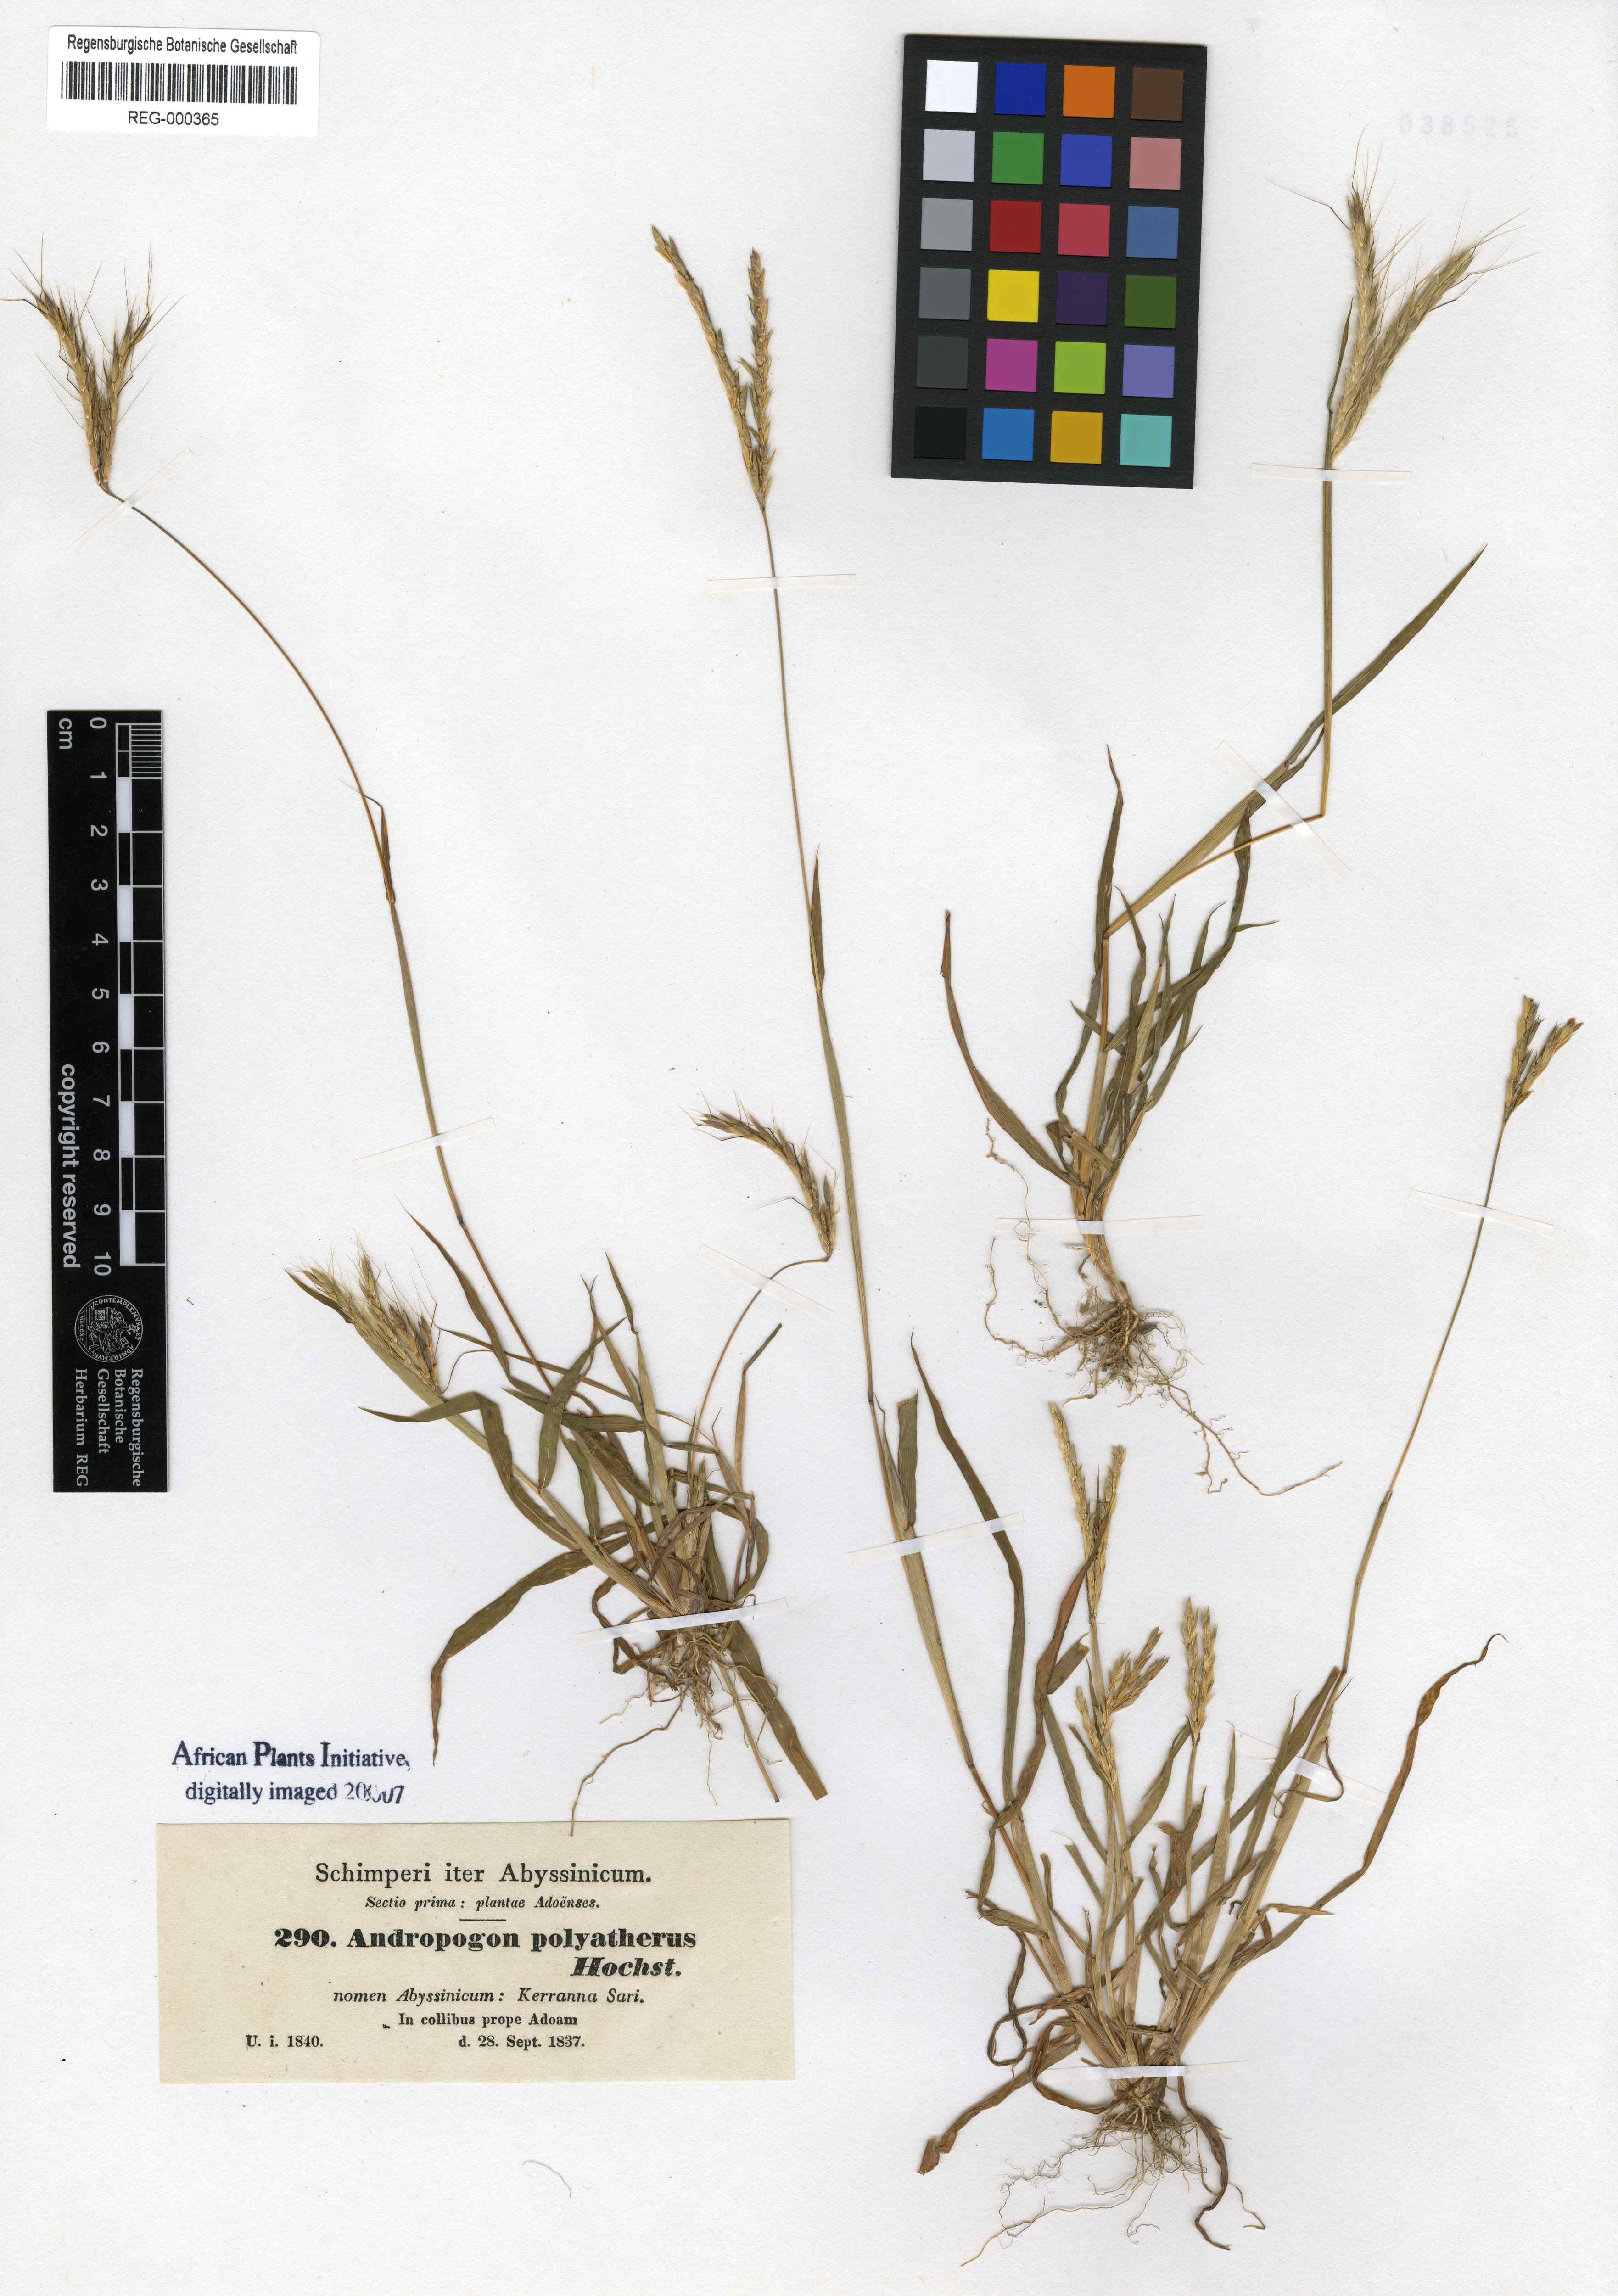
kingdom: Plantae
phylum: Tracheophyta
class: Liliopsida
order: Poales
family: Poaceae
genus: Andropogon
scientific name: Andropogon abyssinicus
